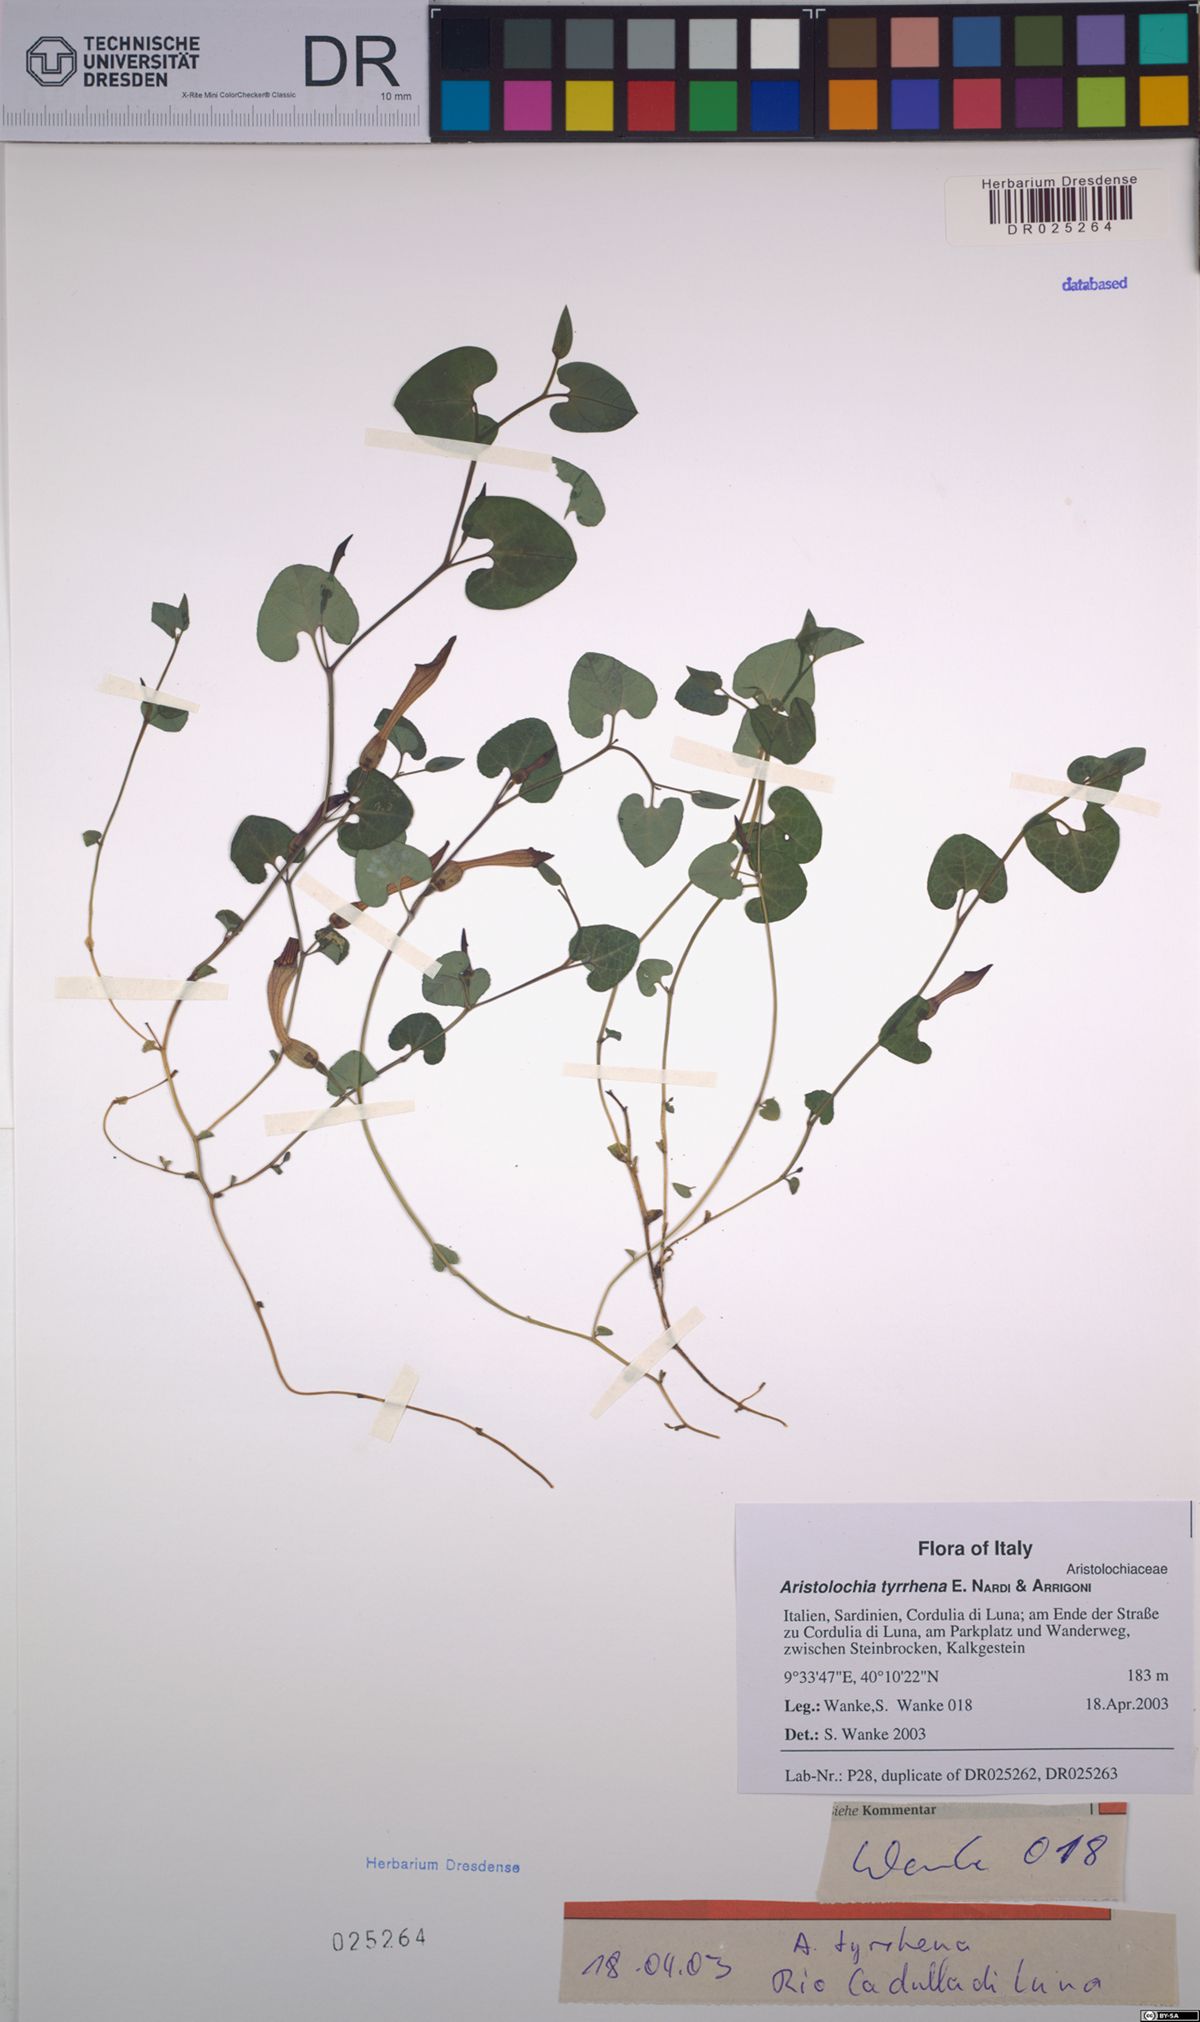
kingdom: Plantae
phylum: Tracheophyta
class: Magnoliopsida
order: Piperales
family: Aristolochiaceae
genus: Aristolochia
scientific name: Aristolochia tyrrhena
